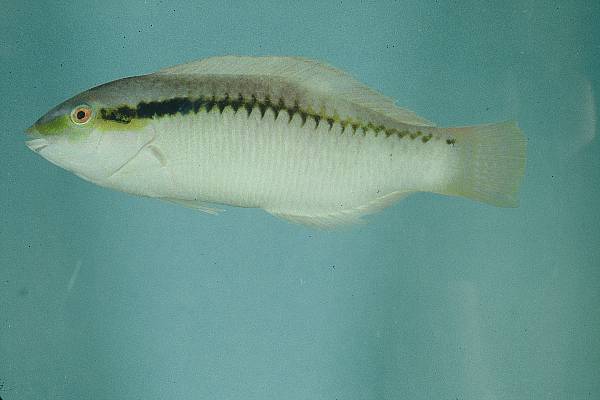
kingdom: Animalia
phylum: Chordata
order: Perciformes
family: Labridae
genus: Halichoeres
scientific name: Halichoeres scapularis
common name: Brownbanded wrasse
